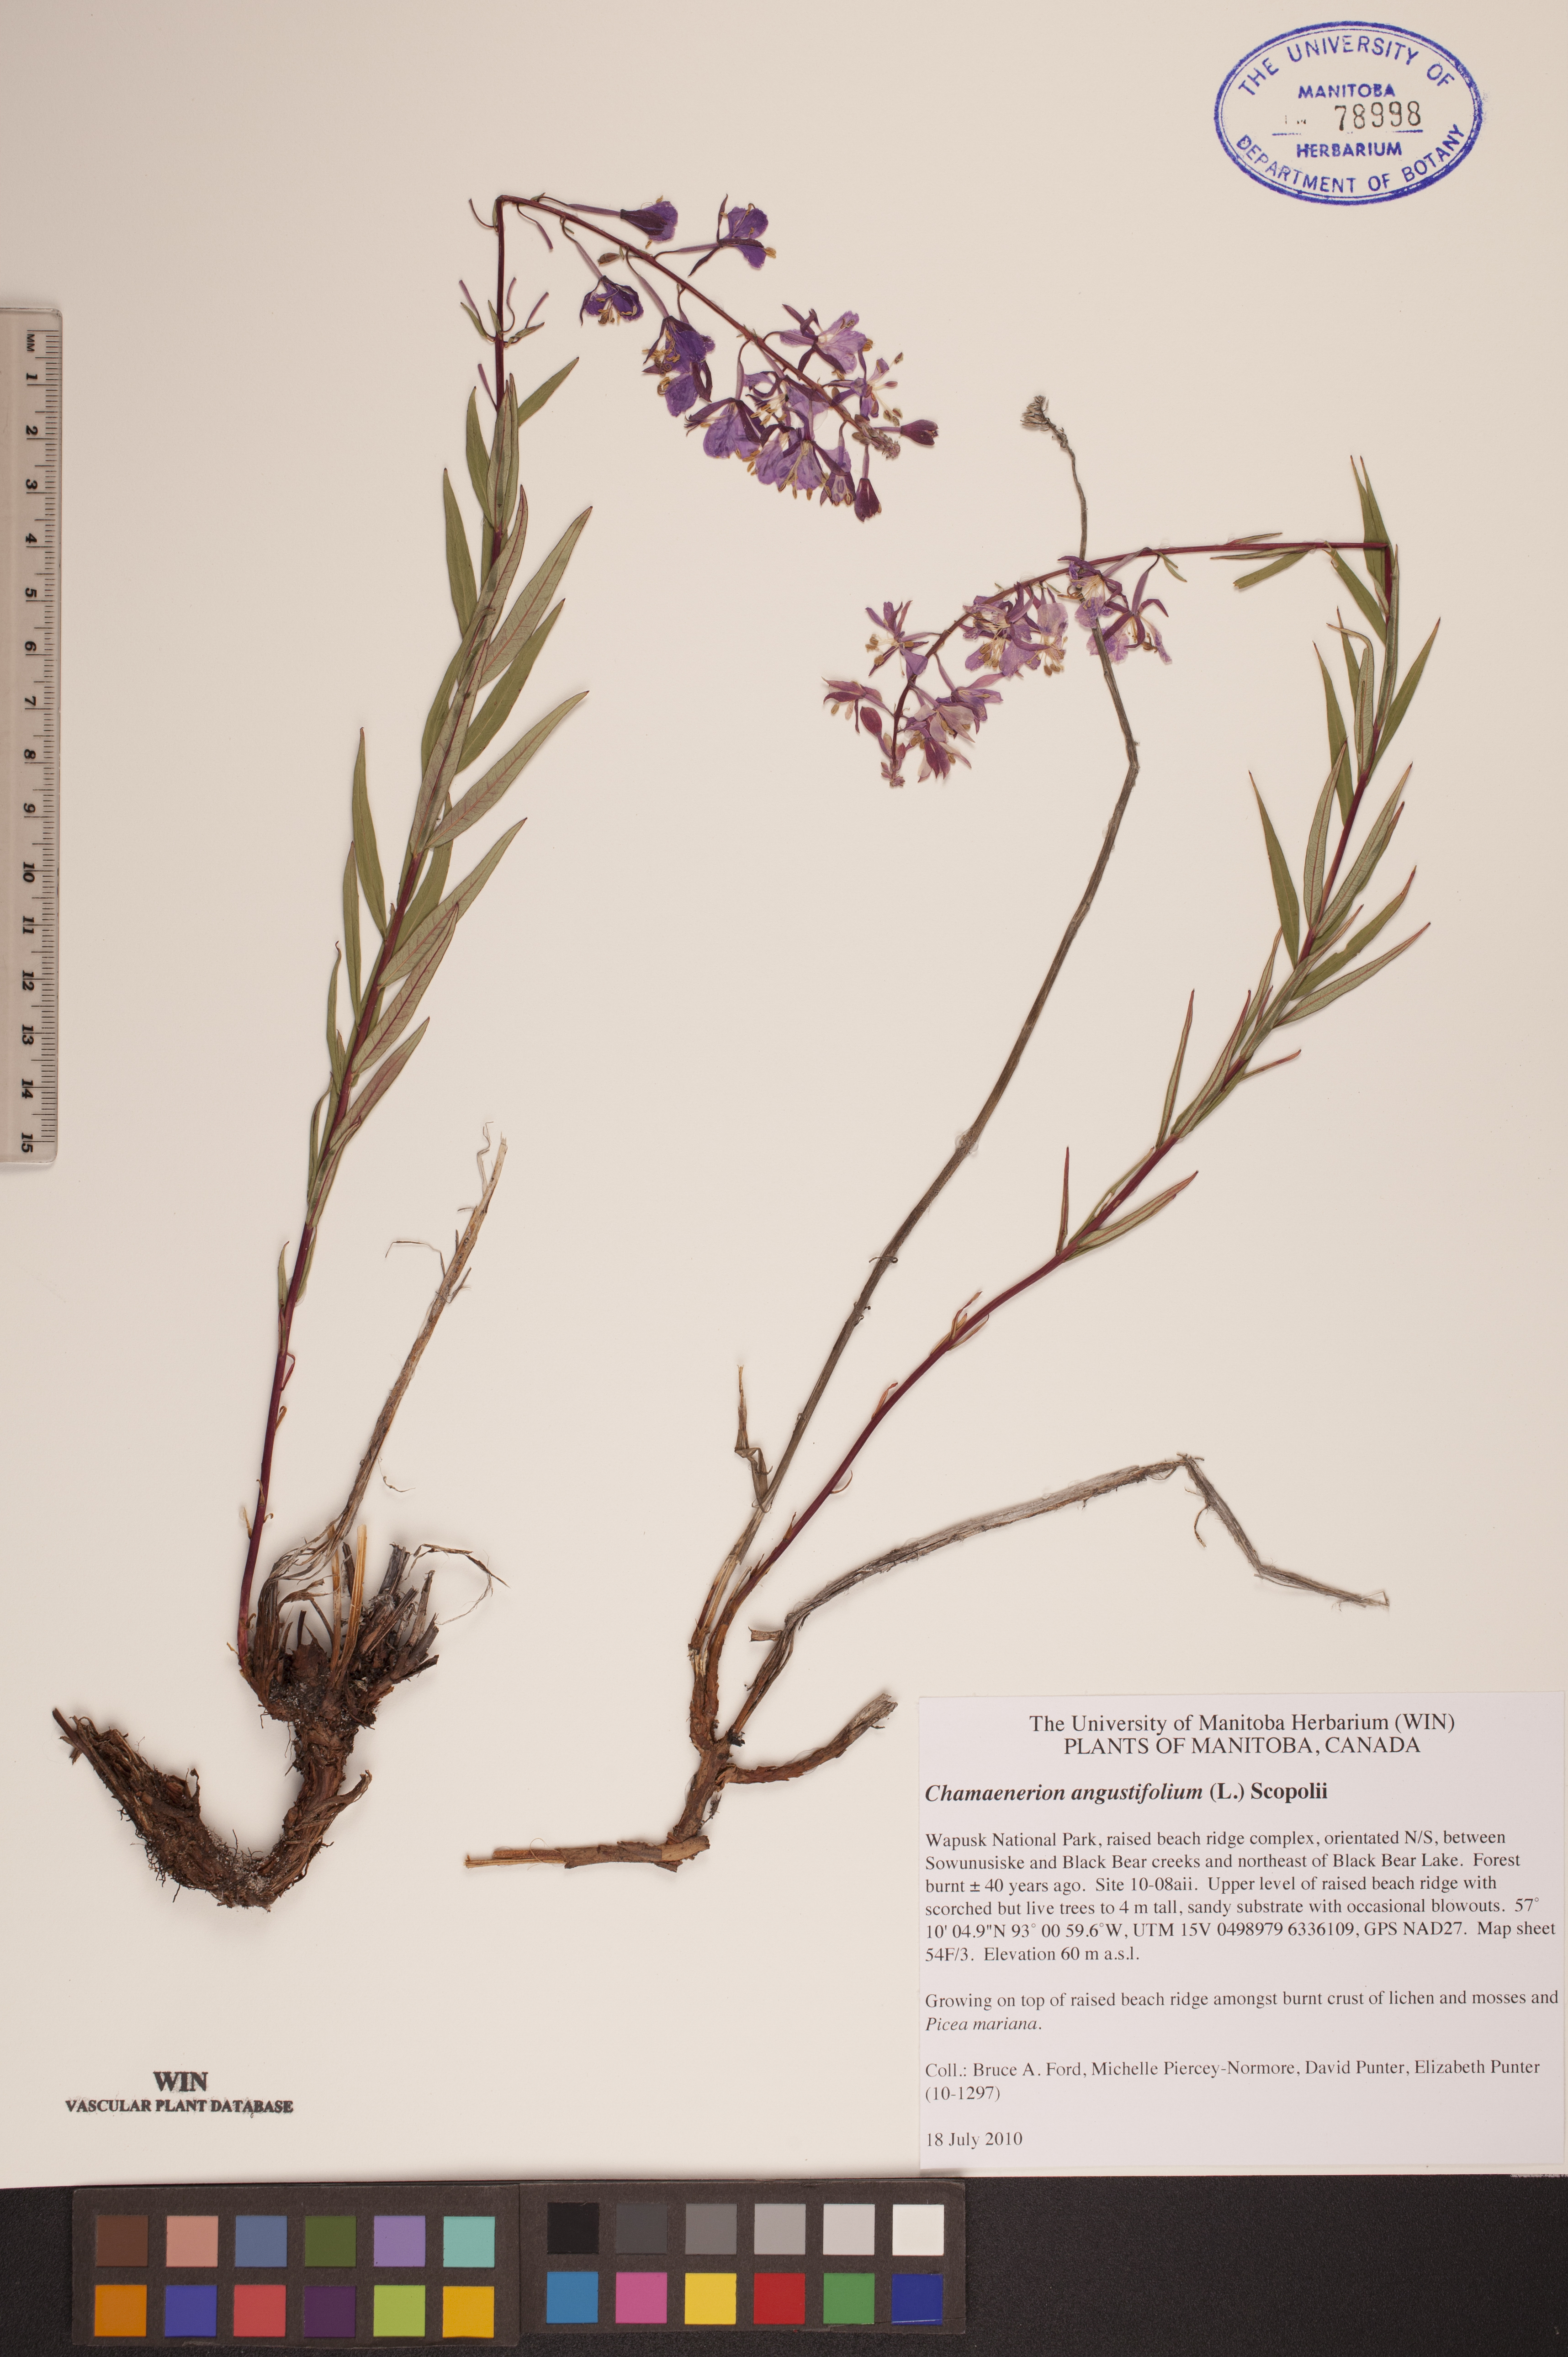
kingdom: Plantae
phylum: Tracheophyta
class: Magnoliopsida
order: Myrtales
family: Onagraceae
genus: Chamaenerion
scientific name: Chamaenerion angustifolium
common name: Fireweed
